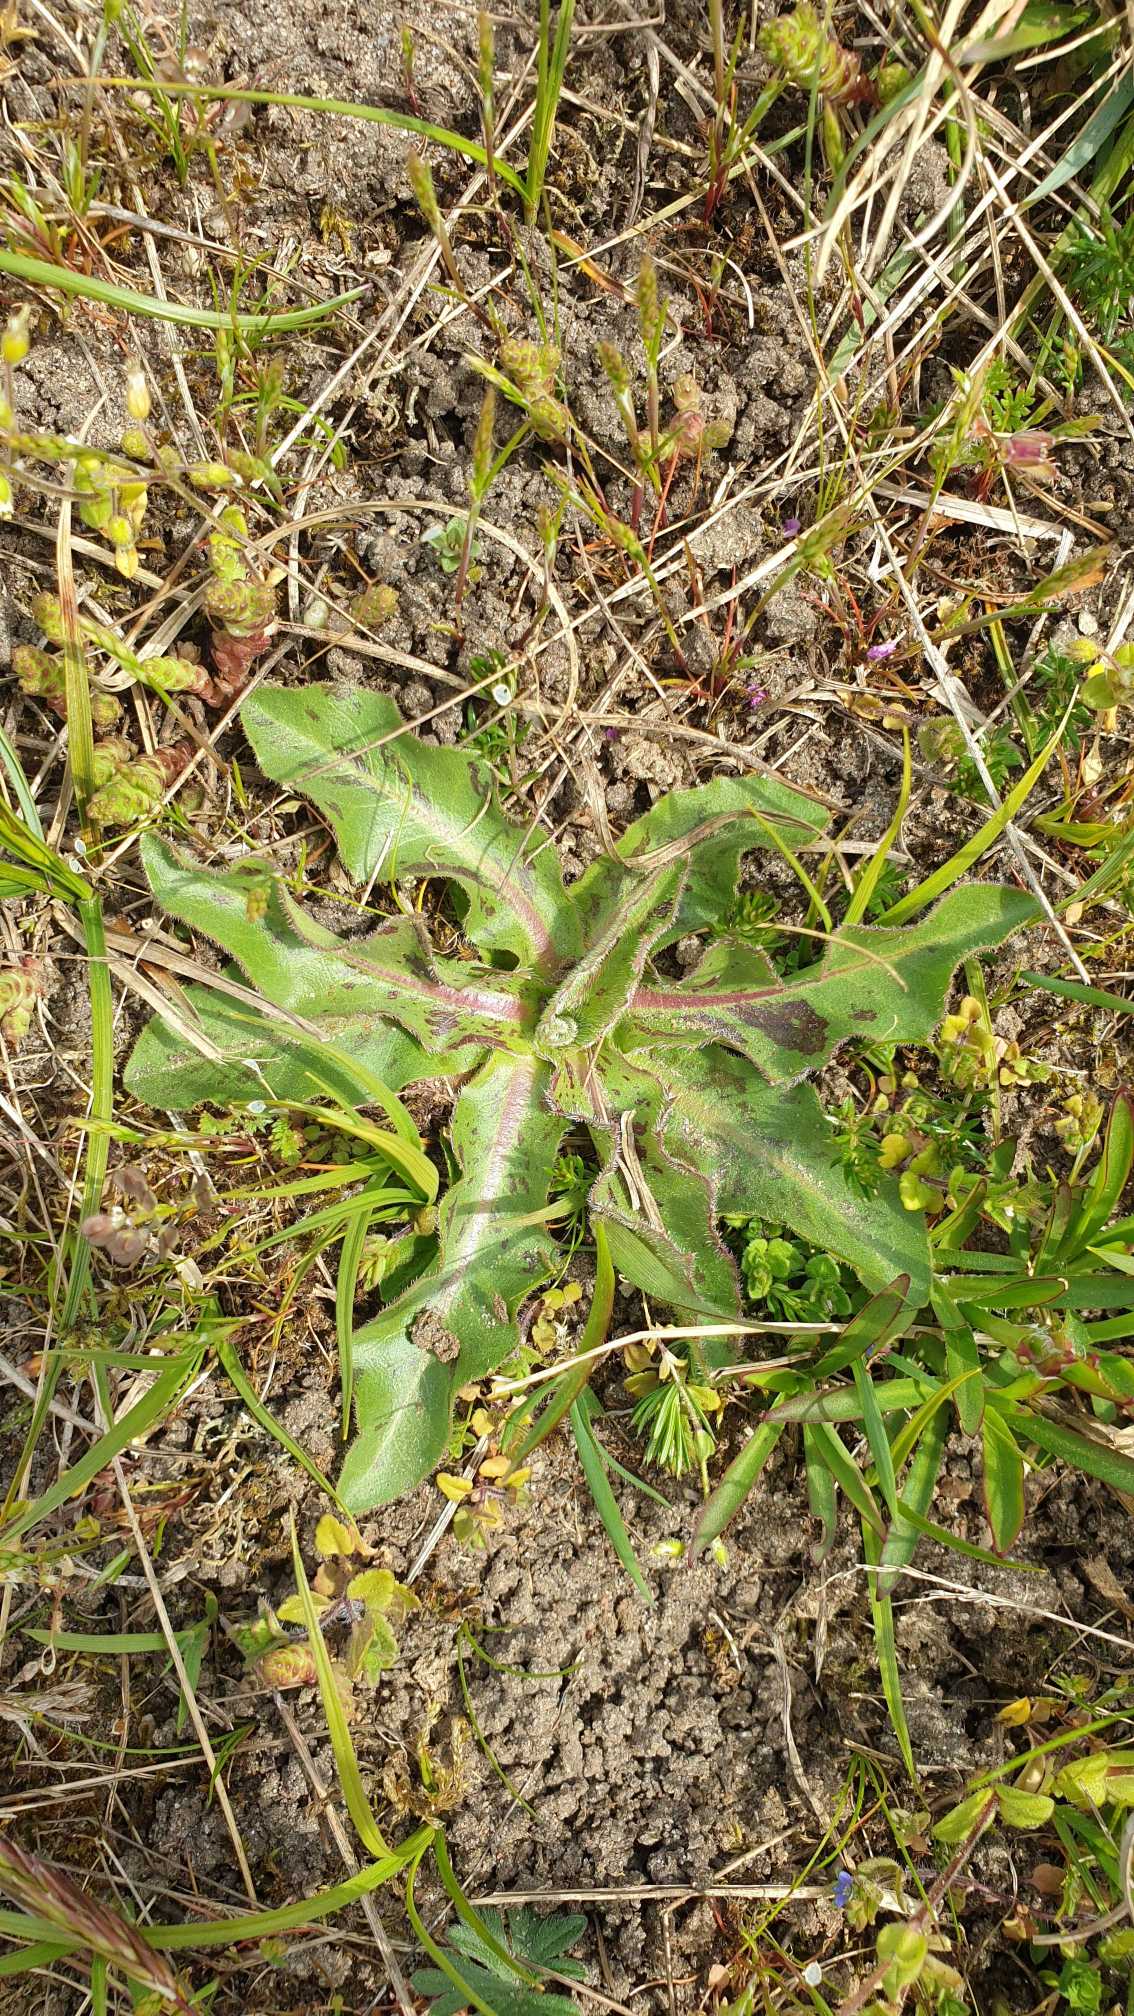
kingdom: Plantae
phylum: Tracheophyta
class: Magnoliopsida
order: Asterales
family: Asteraceae
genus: Trommsdorffia
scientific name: Trommsdorffia maculata
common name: Plettet kongepen
